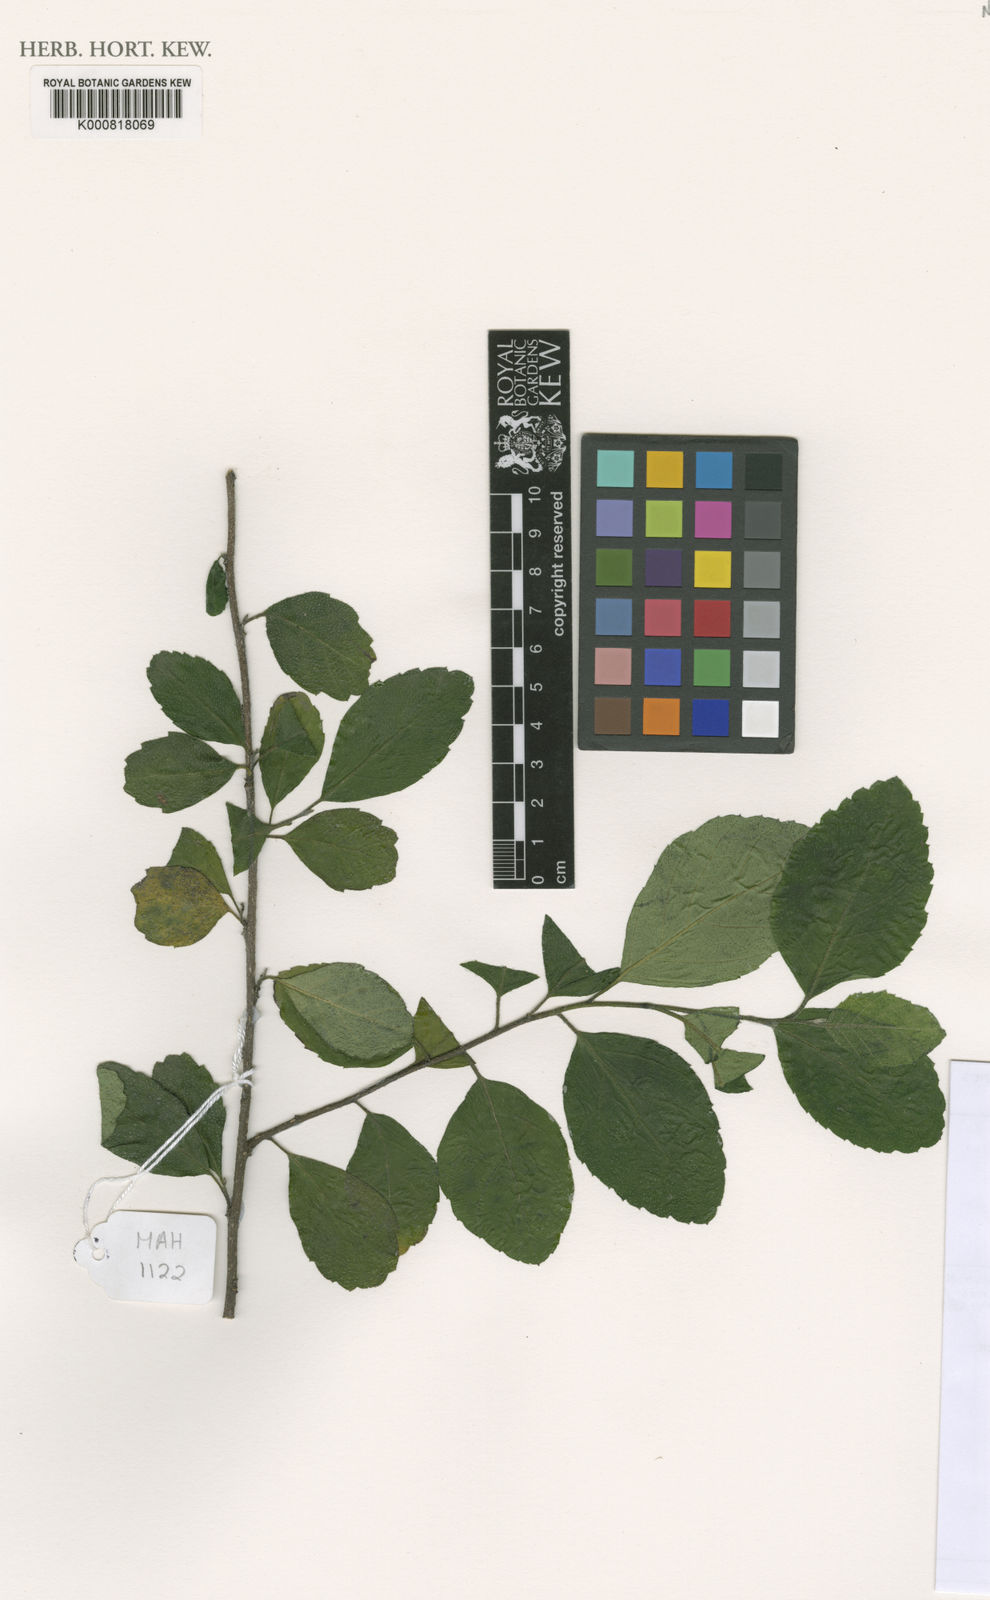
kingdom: Plantae
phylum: Tracheophyta
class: Magnoliopsida
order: Boraginales
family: Cordiaceae
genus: Varronia
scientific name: Varronia rupicola
